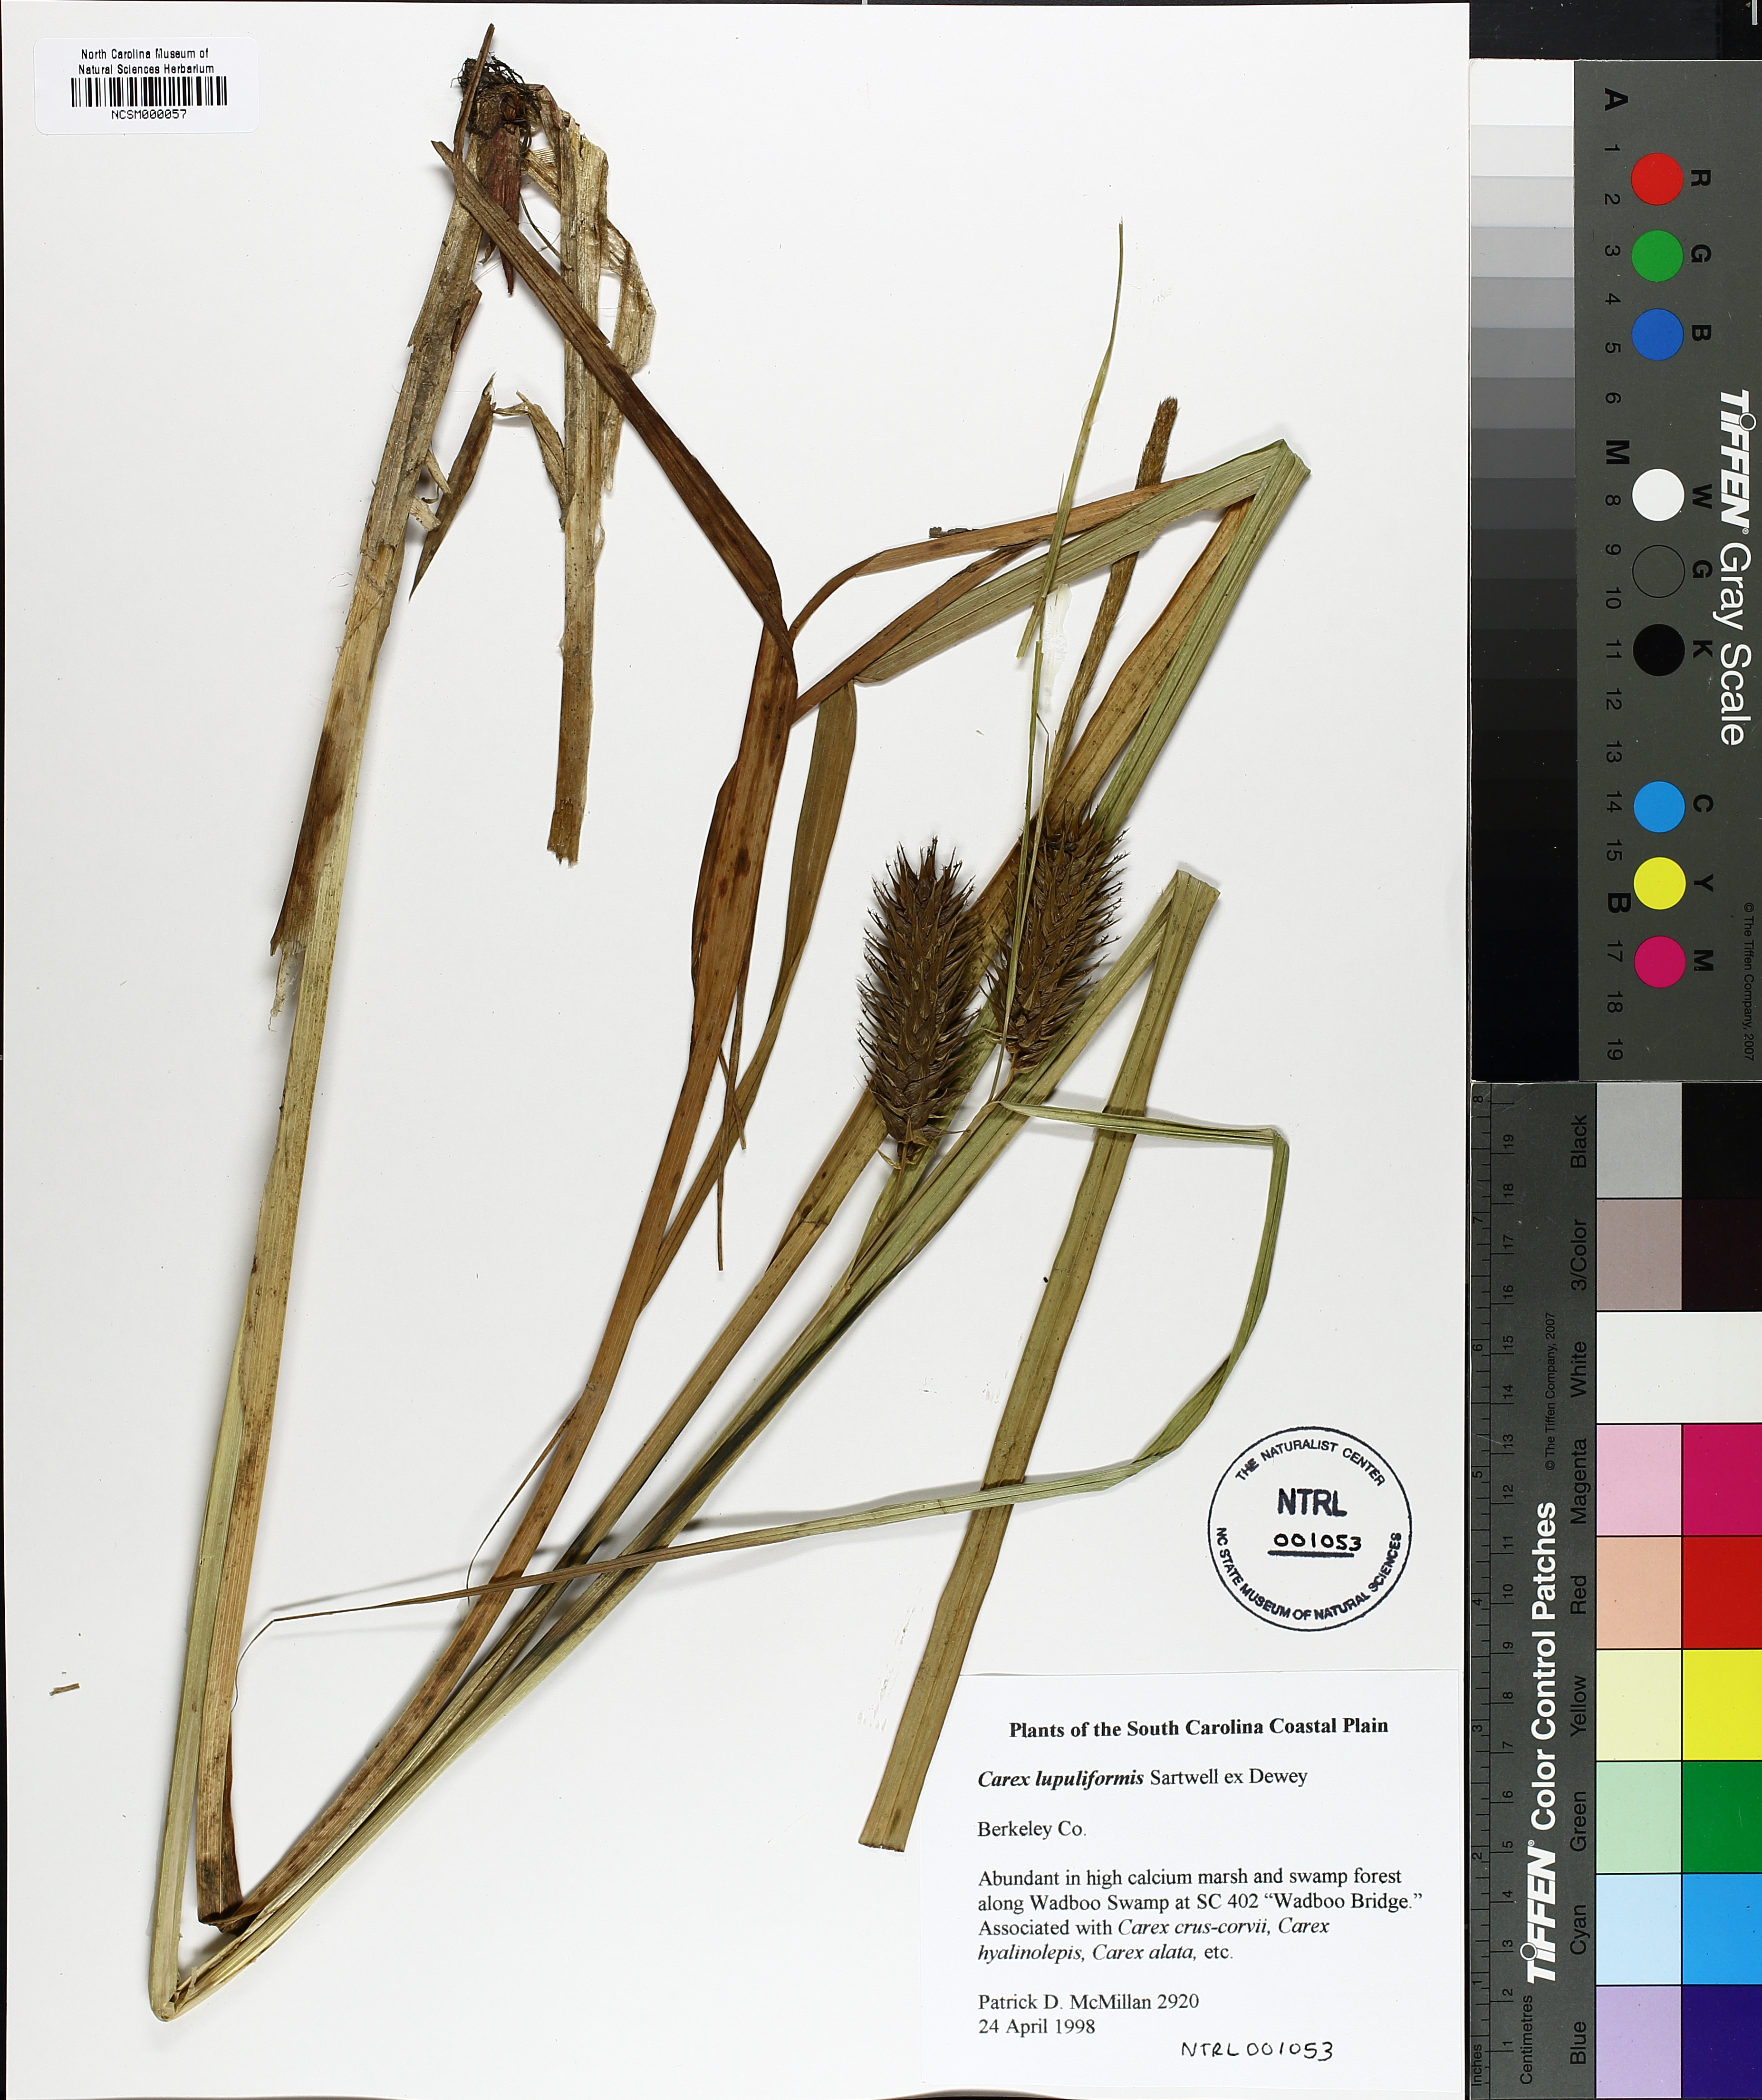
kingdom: Plantae
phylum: Tracheophyta
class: Liliopsida
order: Poales
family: Cyperaceae
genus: Carex
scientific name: Carex lupuliformis
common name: False hop sedge
